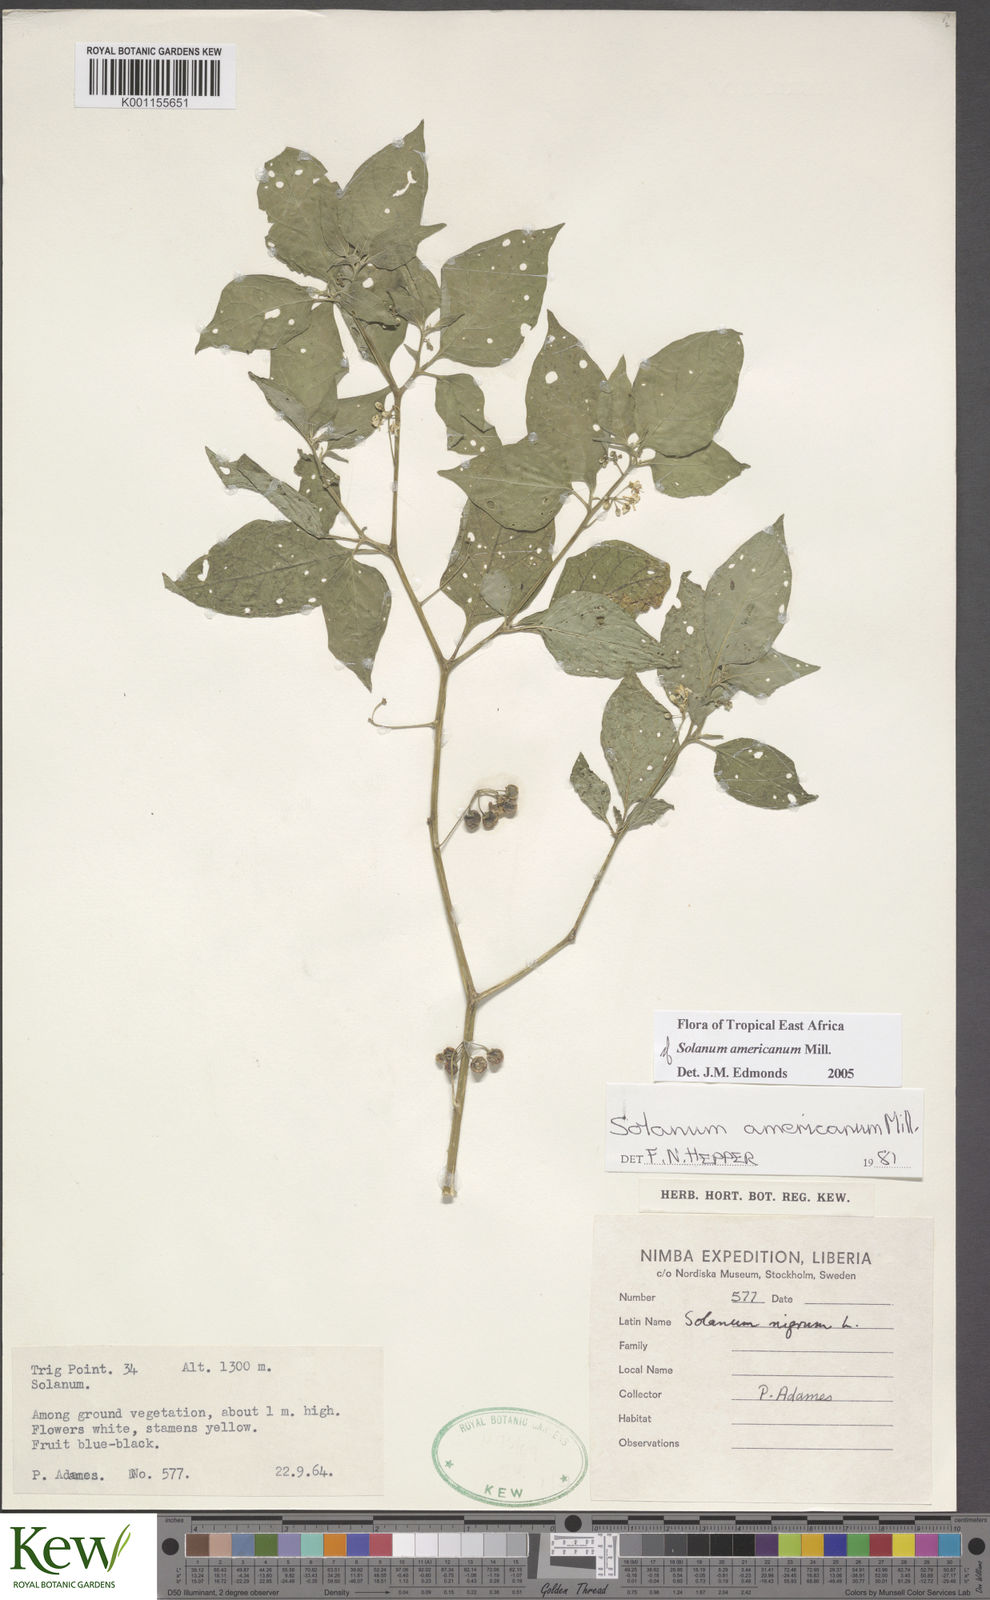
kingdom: Plantae
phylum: Tracheophyta
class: Magnoliopsida
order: Solanales
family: Solanaceae
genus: Solanum
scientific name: Solanum scabrum
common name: Garden-huckleberry
